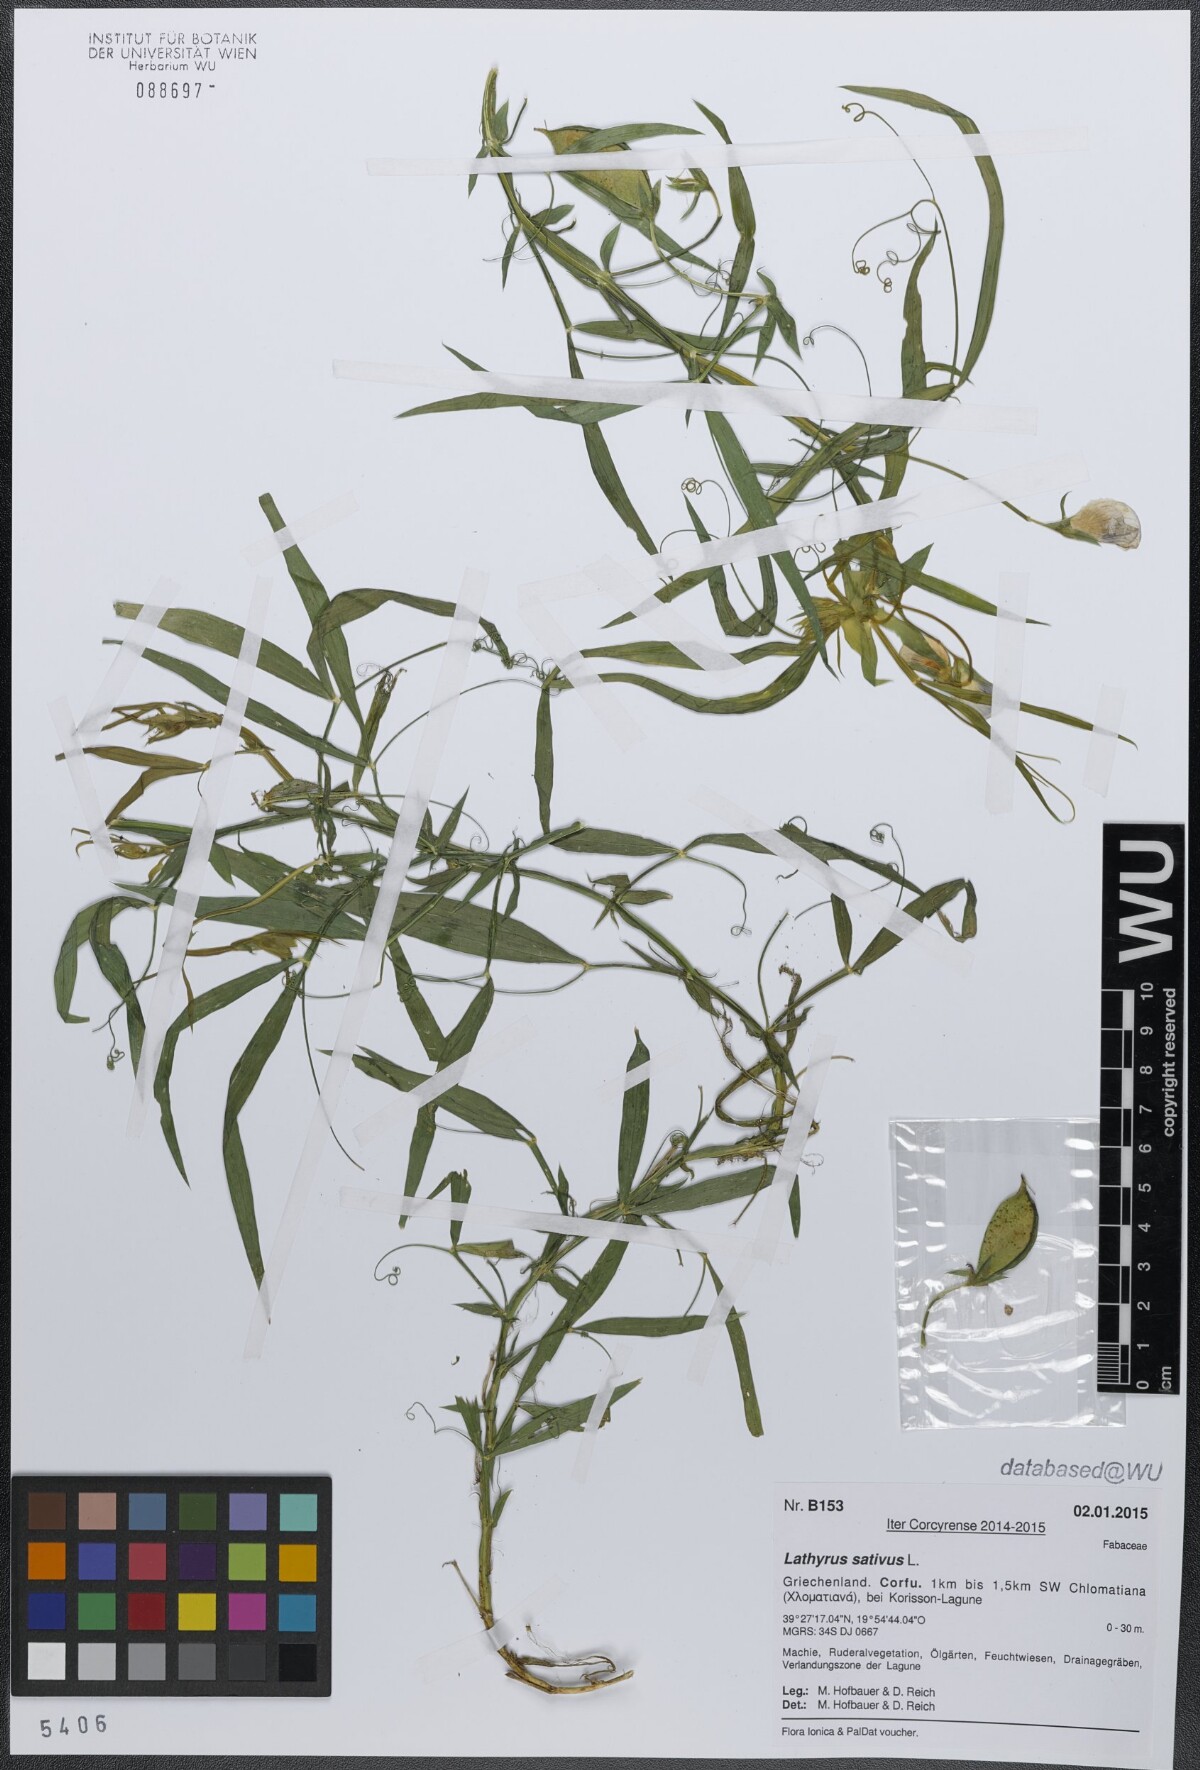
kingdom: Plantae
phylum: Tracheophyta
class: Magnoliopsida
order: Fabales
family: Fabaceae
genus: Lathyrus
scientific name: Lathyrus sativus
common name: Indian pea
